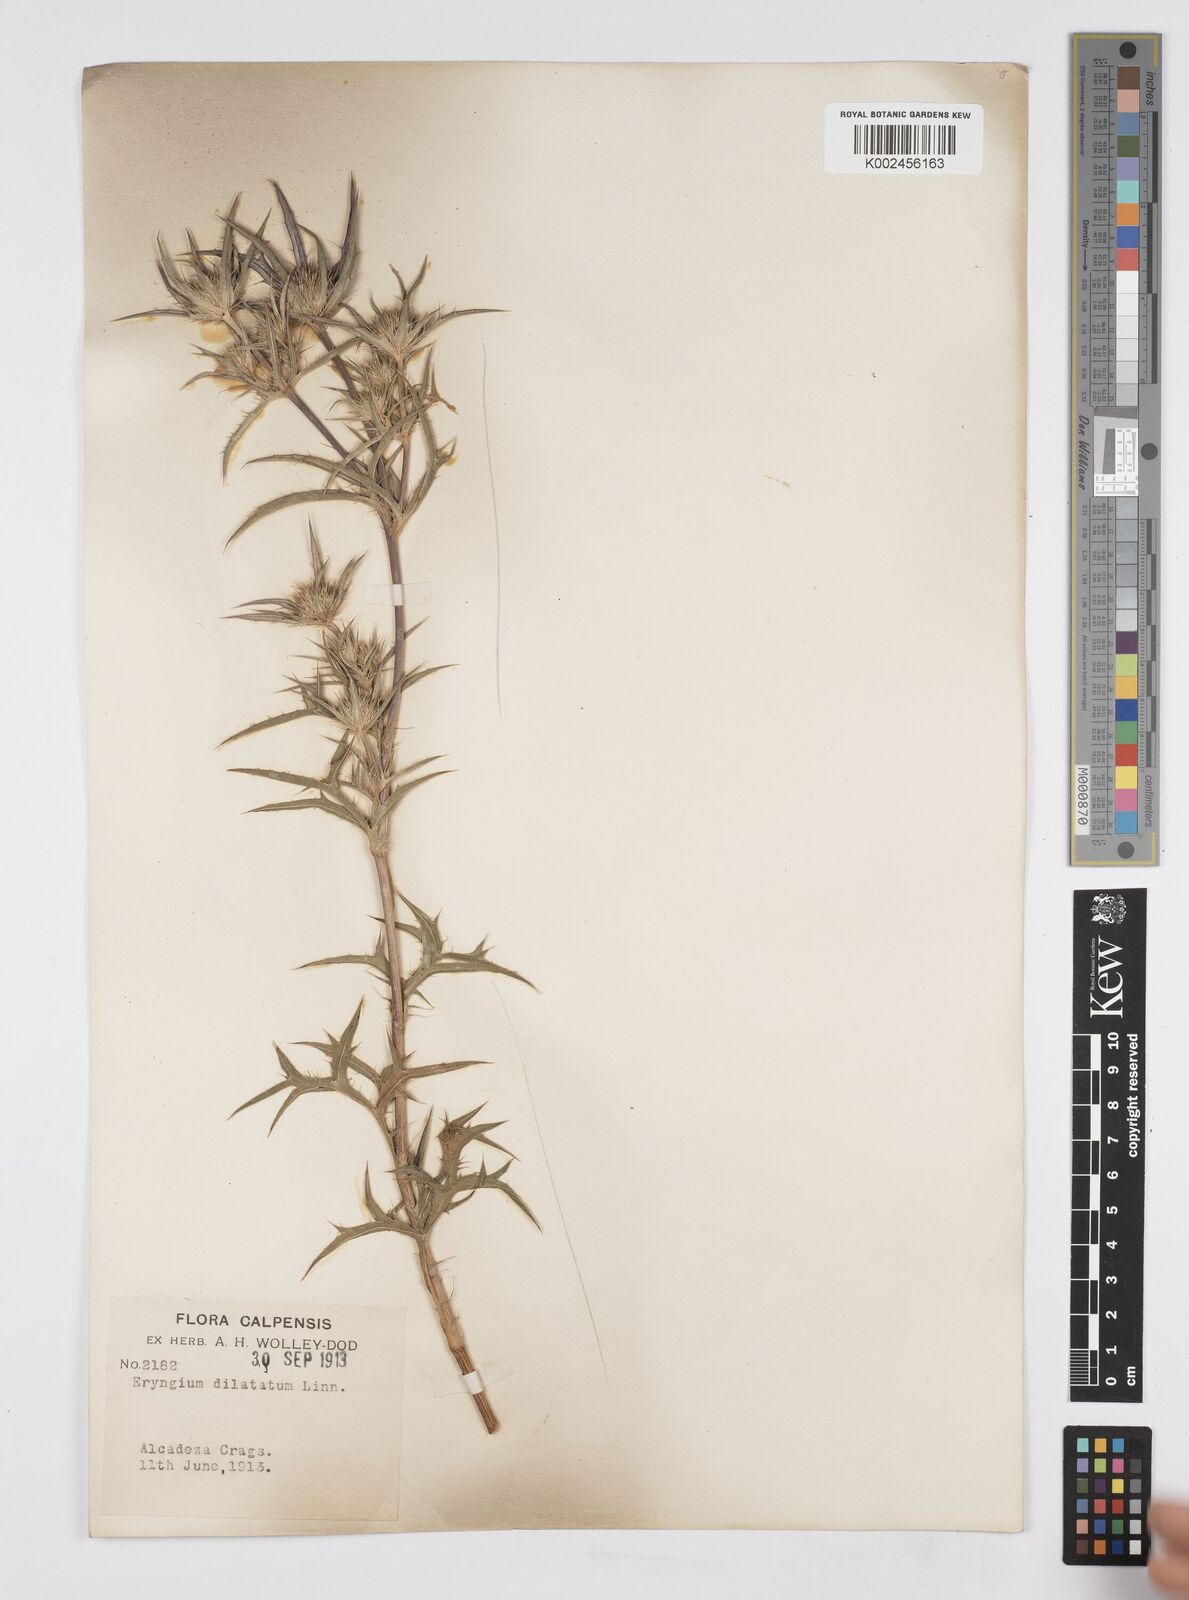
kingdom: Plantae
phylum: Tracheophyta
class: Magnoliopsida
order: Apiales
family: Apiaceae
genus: Eryngium
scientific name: Eryngium dilatatum
